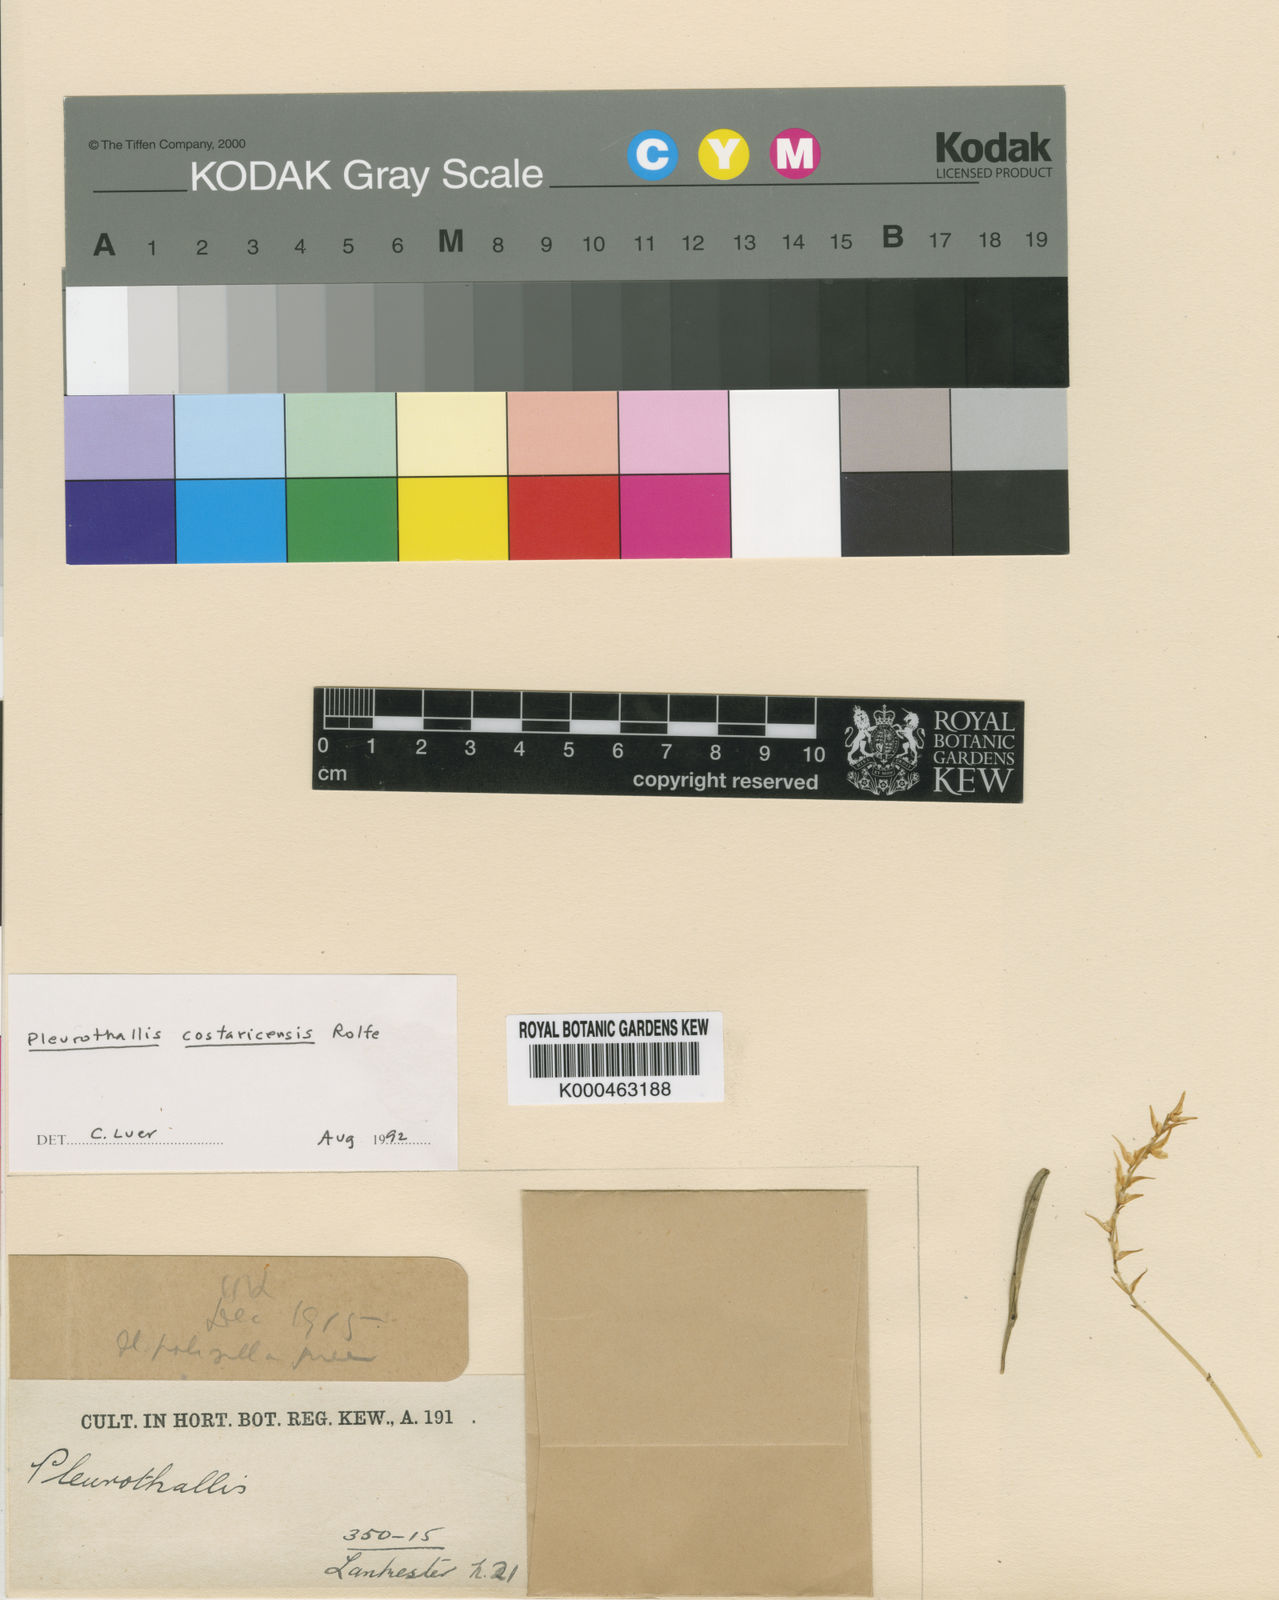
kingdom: Plantae
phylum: Tracheophyta
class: Liliopsida
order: Asparagales
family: Orchidaceae
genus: Specklinia
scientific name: Specklinia costaricensis
